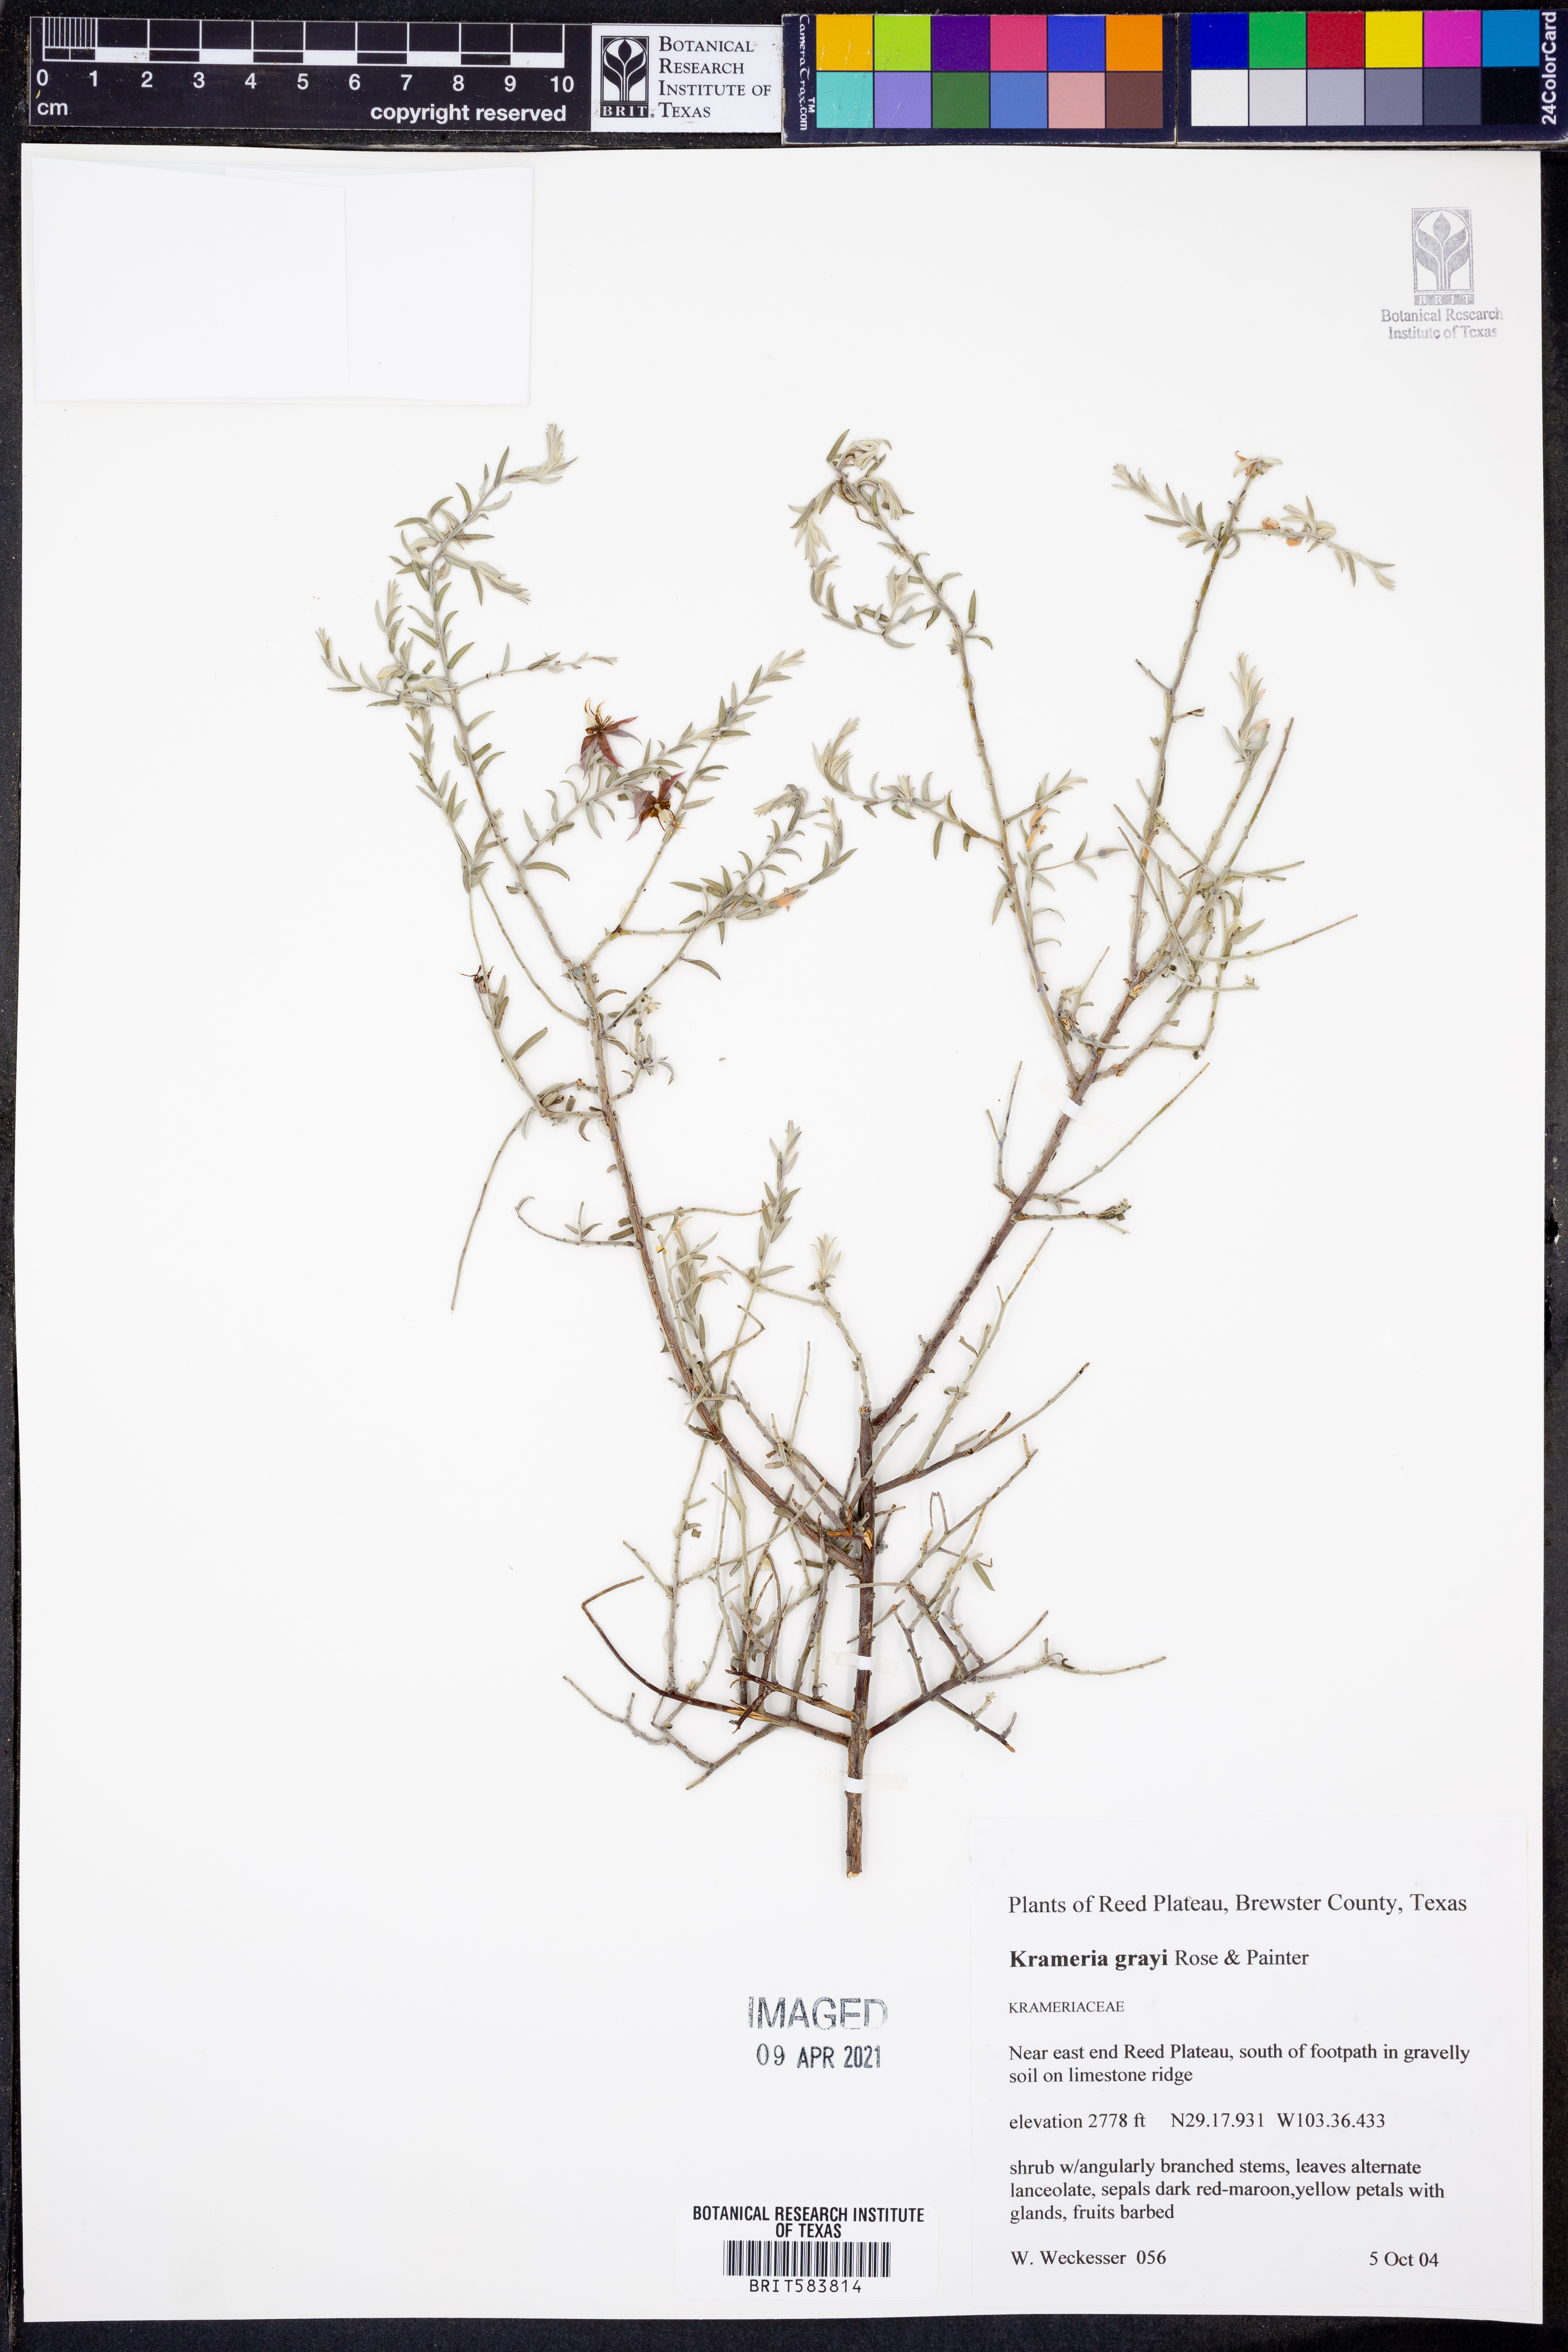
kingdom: Plantae
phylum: Tracheophyta
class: Magnoliopsida
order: Zygophyllales
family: Krameriaceae
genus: Krameria
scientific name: Krameria bicolor
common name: White ratany
